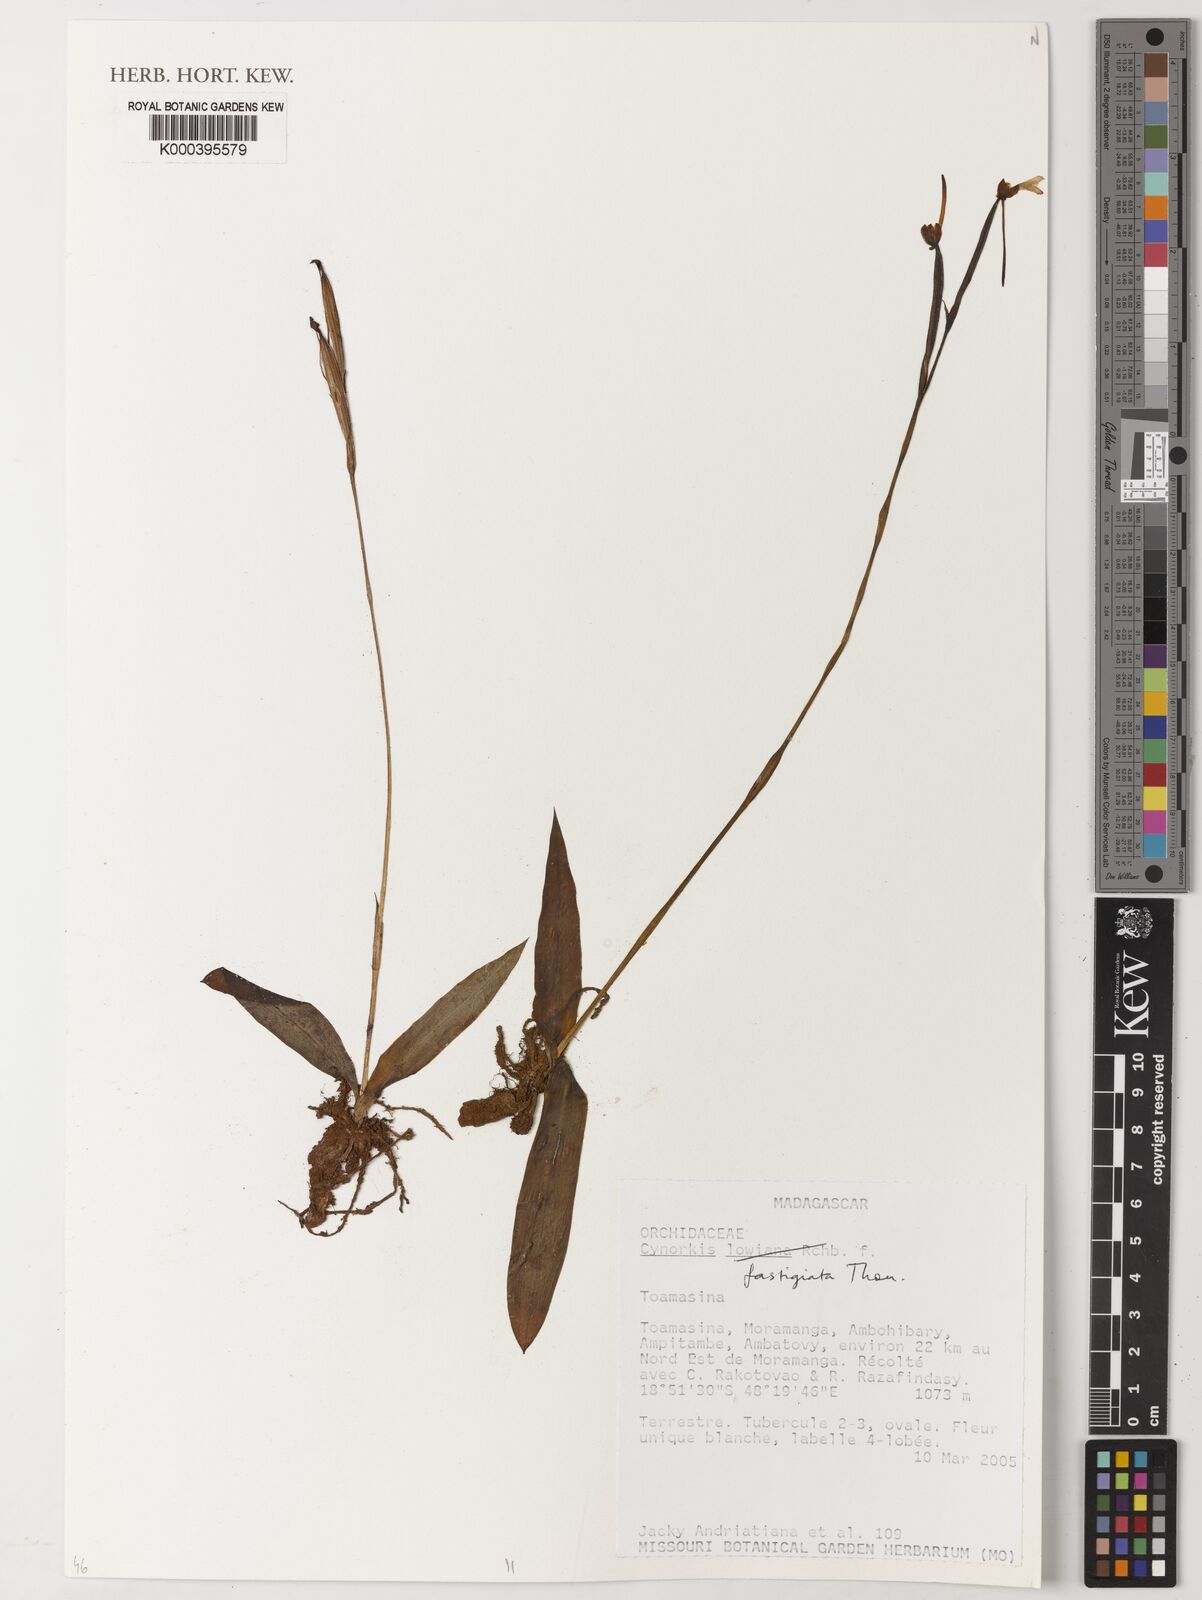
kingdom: Plantae
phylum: Tracheophyta
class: Liliopsida
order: Asparagales
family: Orchidaceae
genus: Cynorkis
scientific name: Cynorkis lowiana
